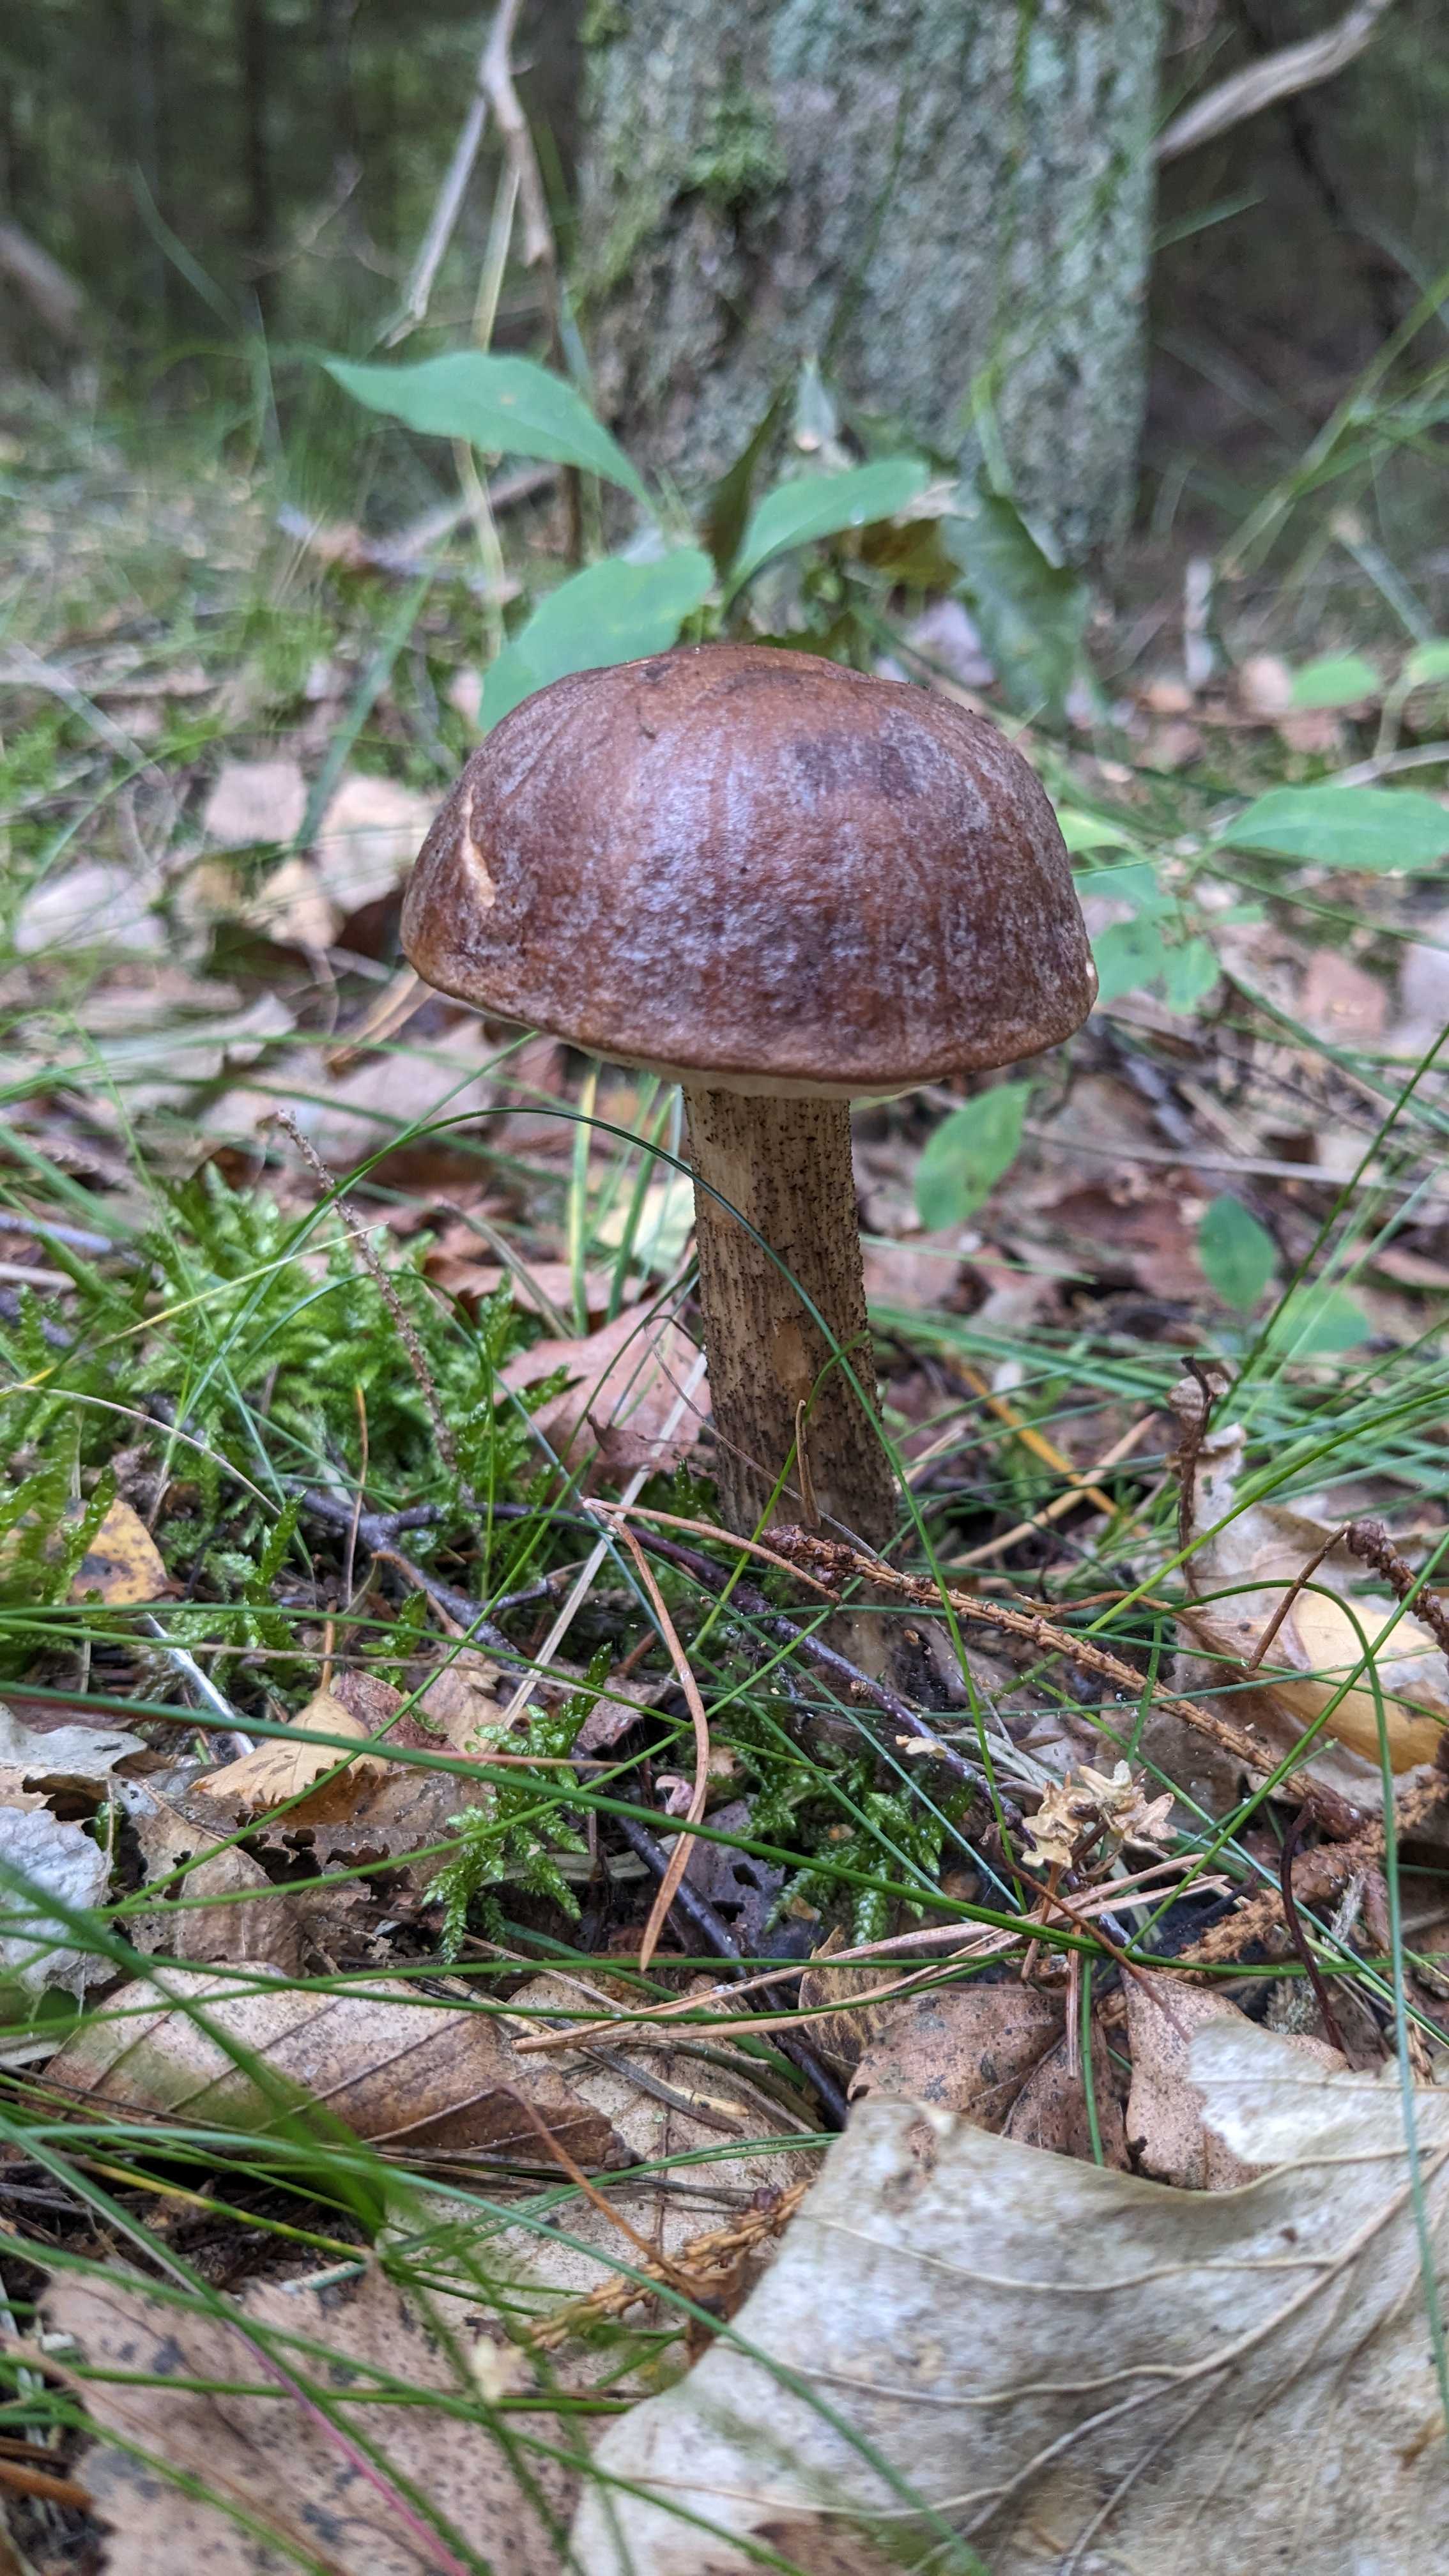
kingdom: Fungi
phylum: Basidiomycota
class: Agaricomycetes
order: Boletales
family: Boletaceae
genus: Leccinum
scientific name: Leccinum
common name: skælrørhat
